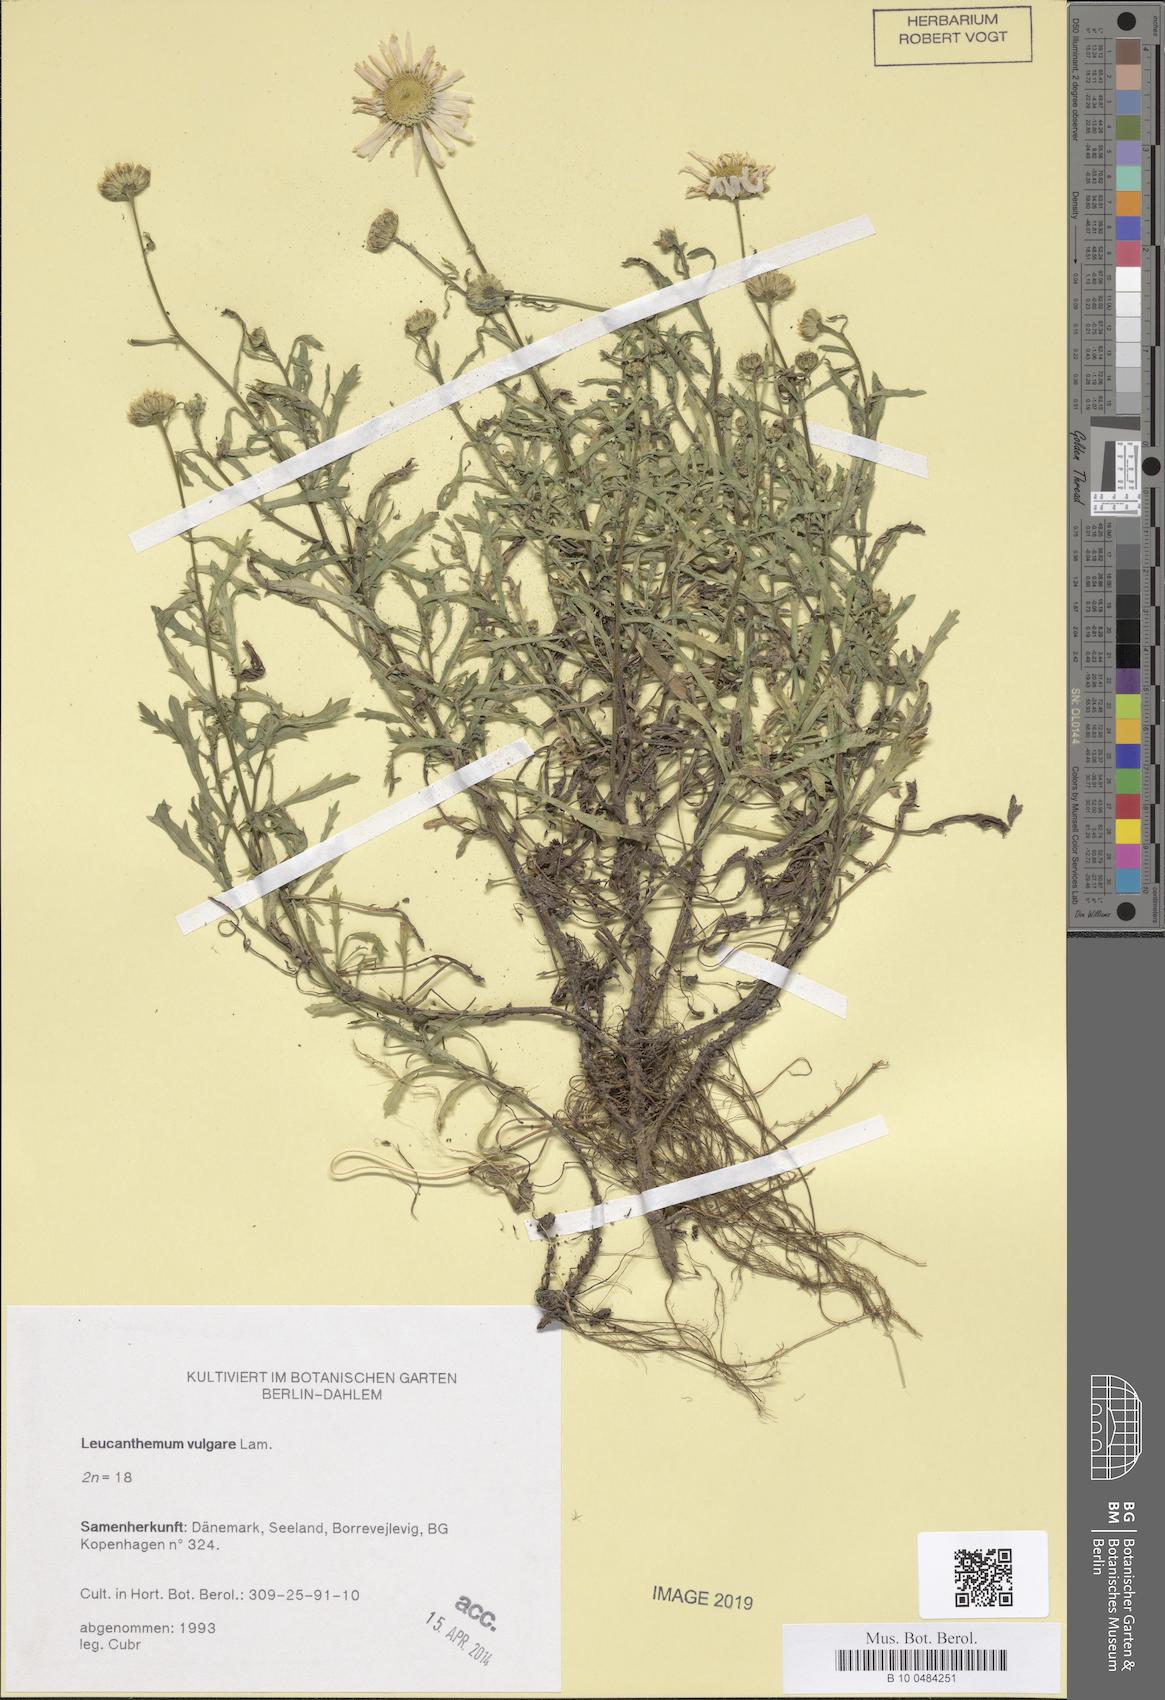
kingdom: Plantae
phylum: Tracheophyta
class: Magnoliopsida
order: Asterales
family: Asteraceae
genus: Leucanthemum
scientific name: Leucanthemum vulgare
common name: Oxeye daisy
